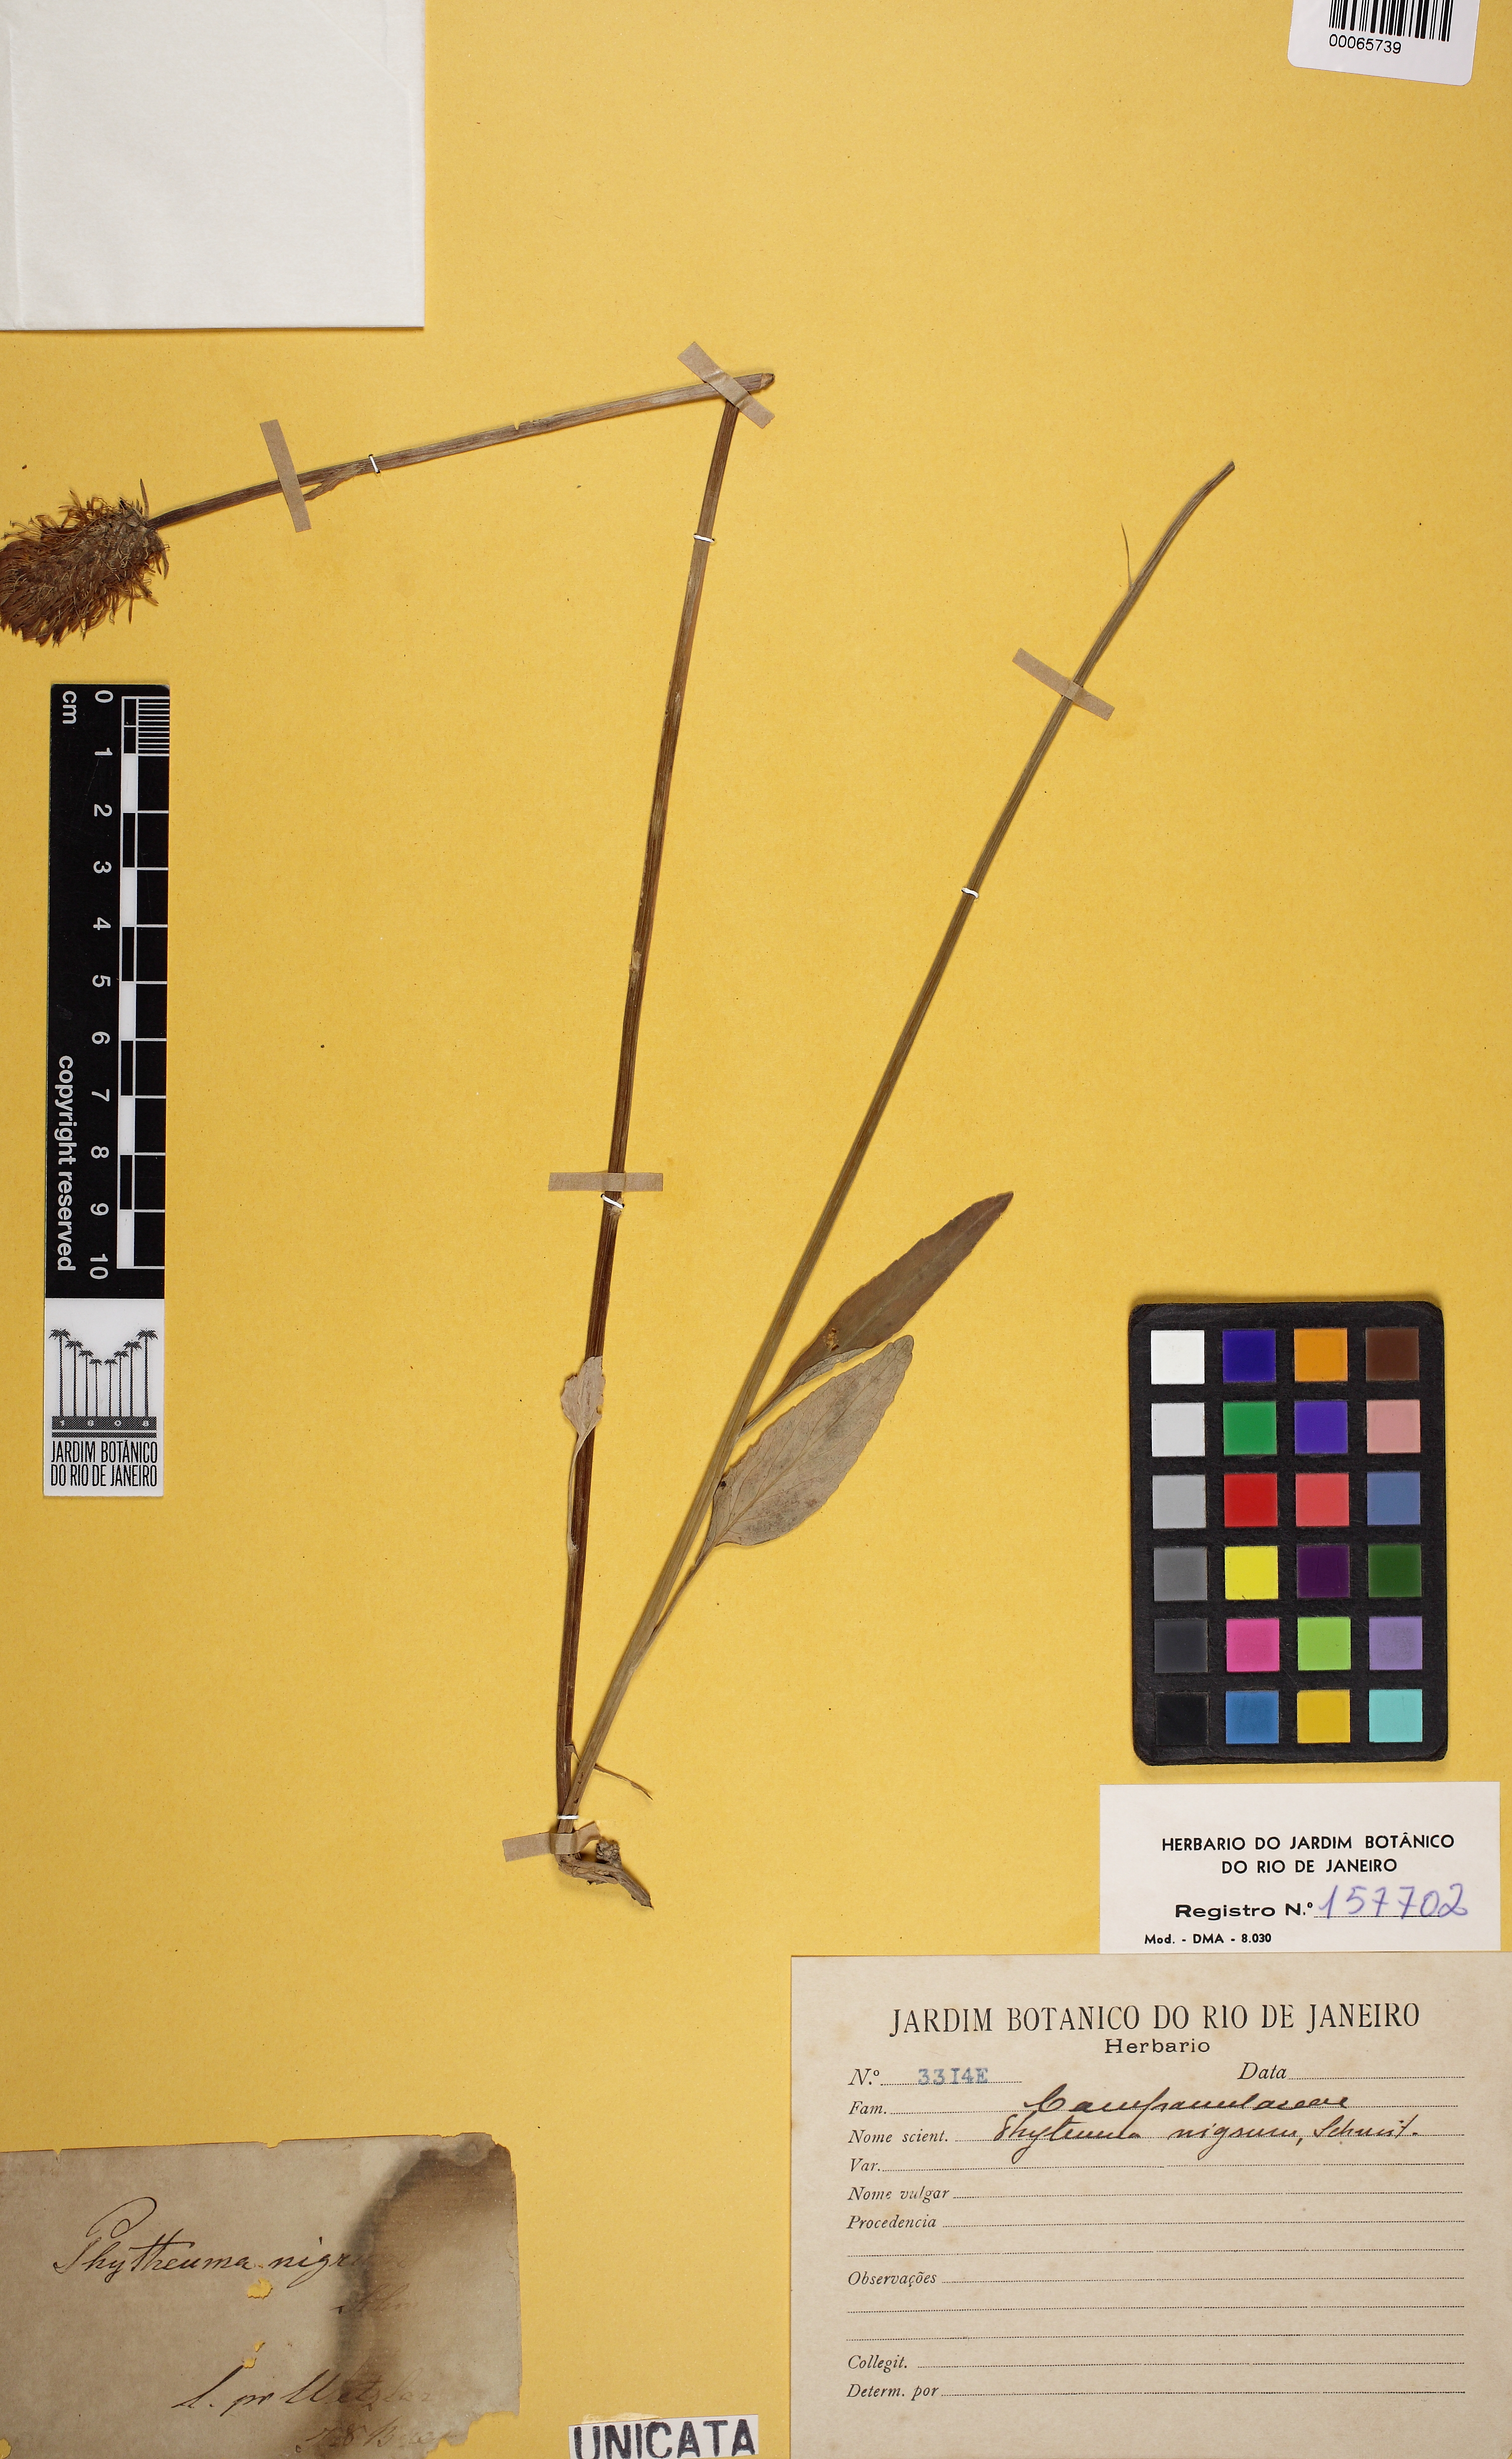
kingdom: Plantae
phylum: Tracheophyta
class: Magnoliopsida
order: Asterales
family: Campanulaceae
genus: Phyteuma
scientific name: Phyteuma nigrum
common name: Black rampion
